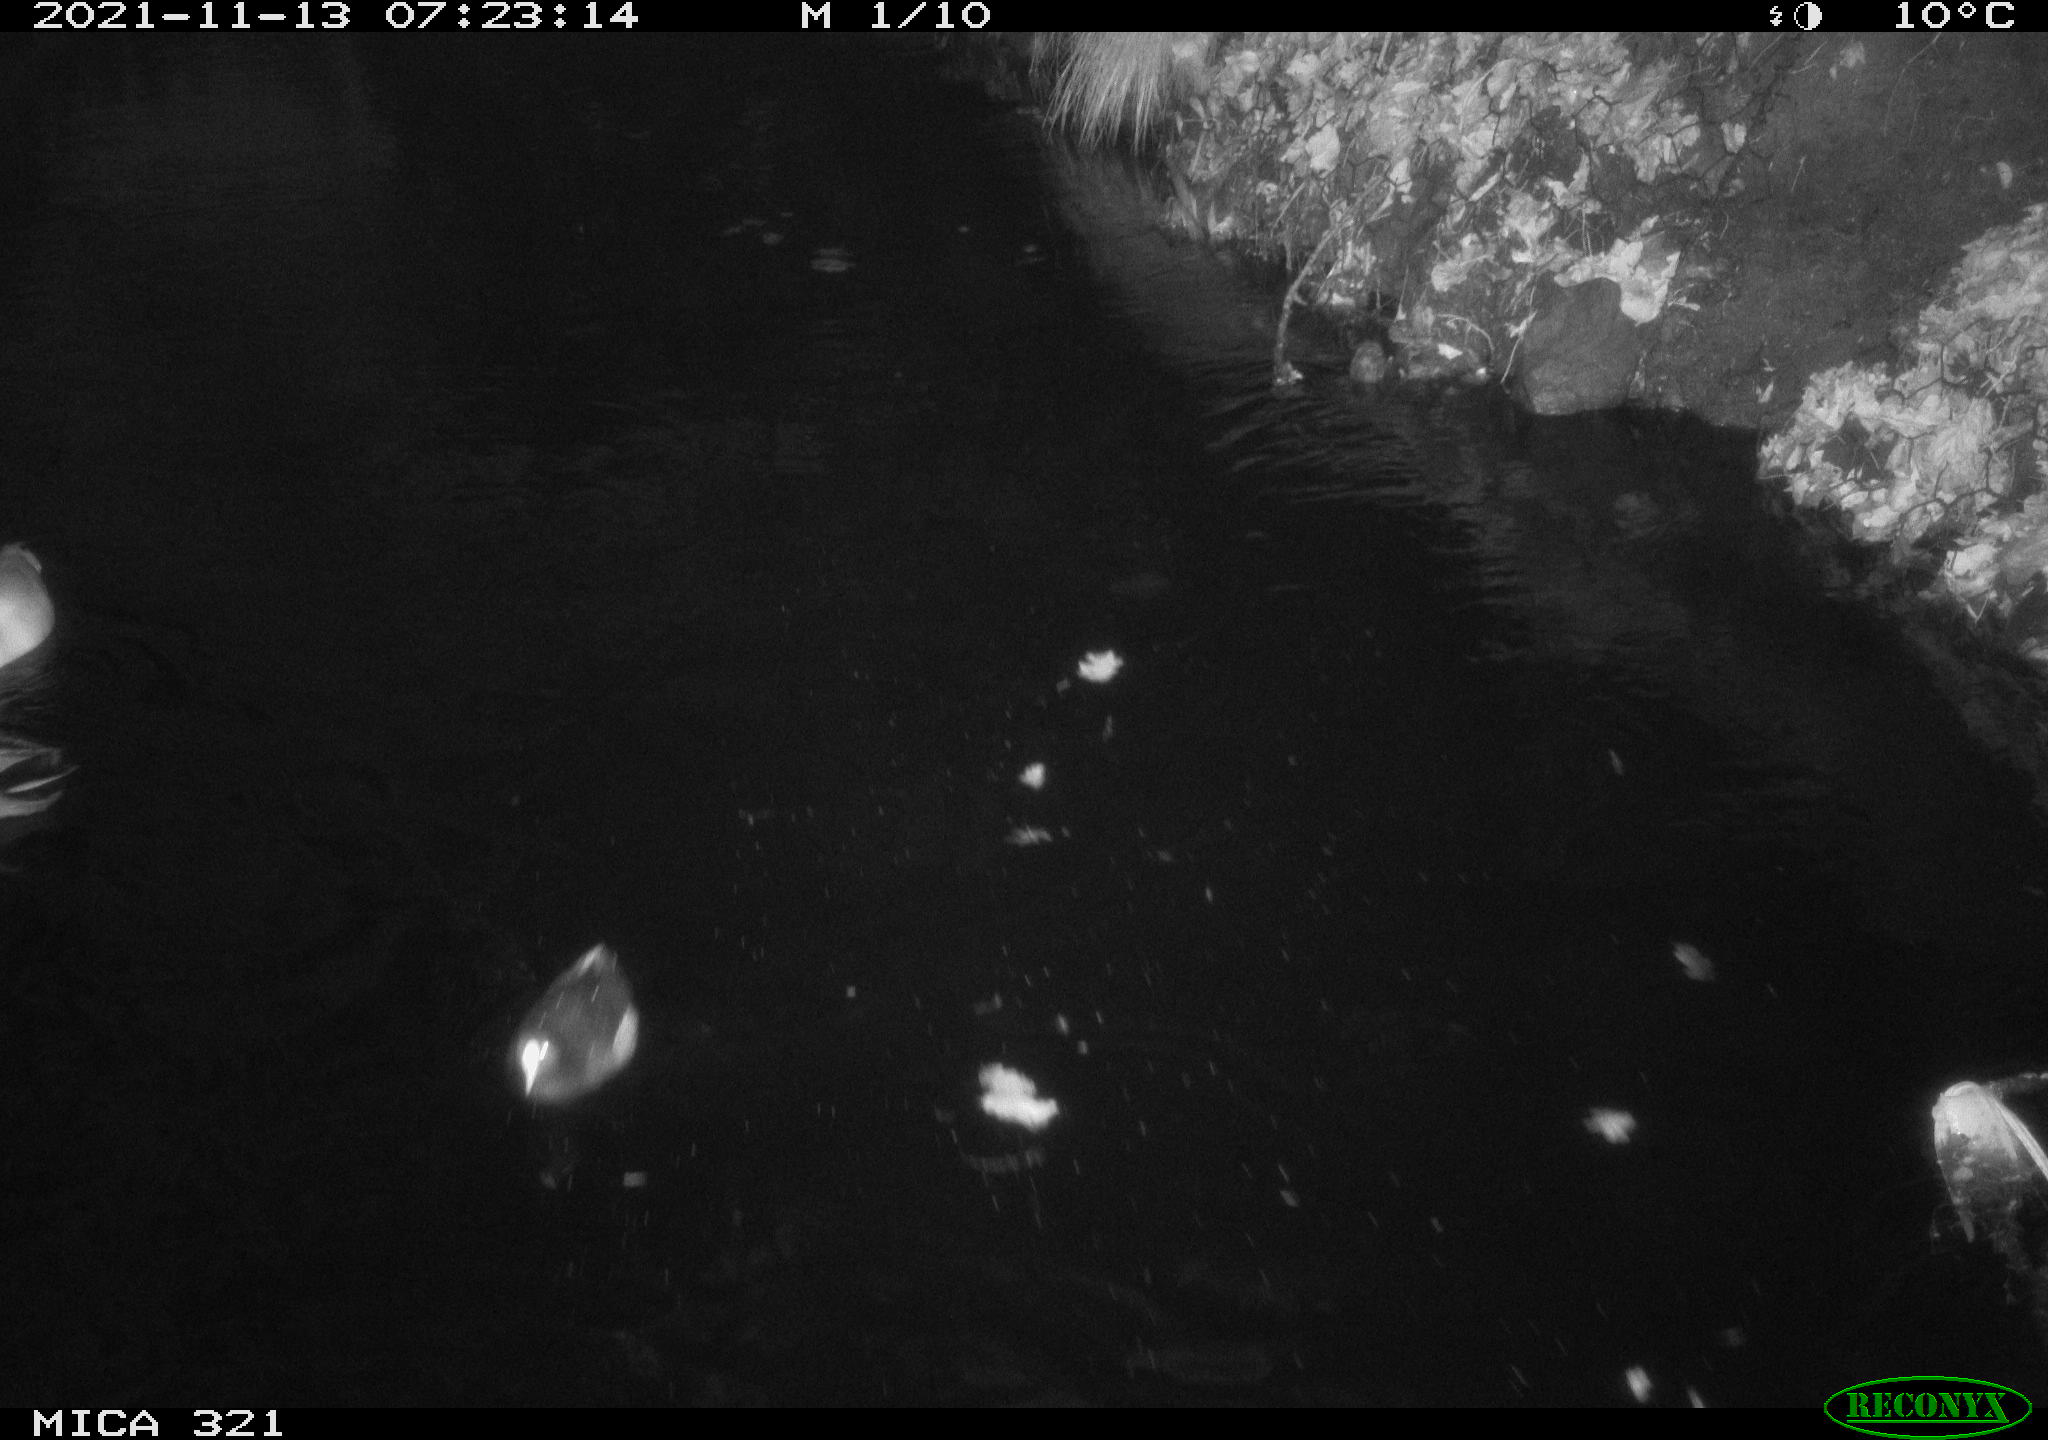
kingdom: Animalia
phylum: Chordata
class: Aves
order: Gruiformes
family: Rallidae
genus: Gallinula
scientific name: Gallinula chloropus
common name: Common moorhen
